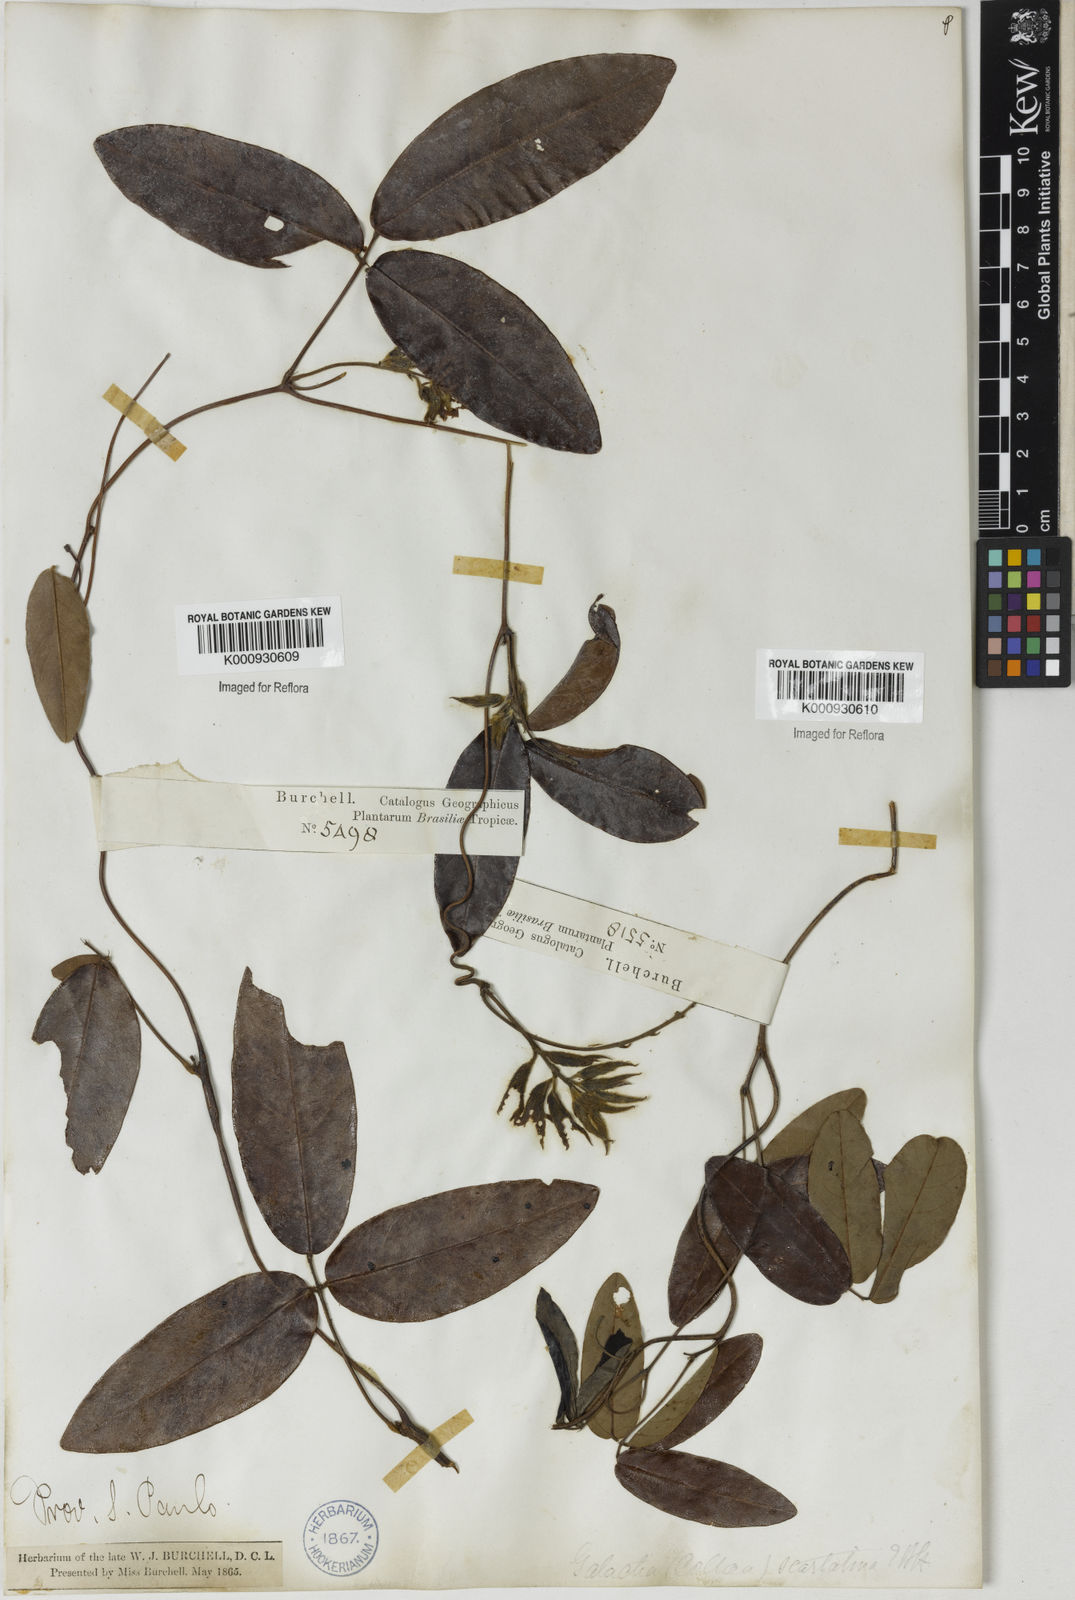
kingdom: Plantae
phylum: Tracheophyta
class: Magnoliopsida
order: Fabales
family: Fabaceae
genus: Betencourtia
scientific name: Betencourtia scarlatina
